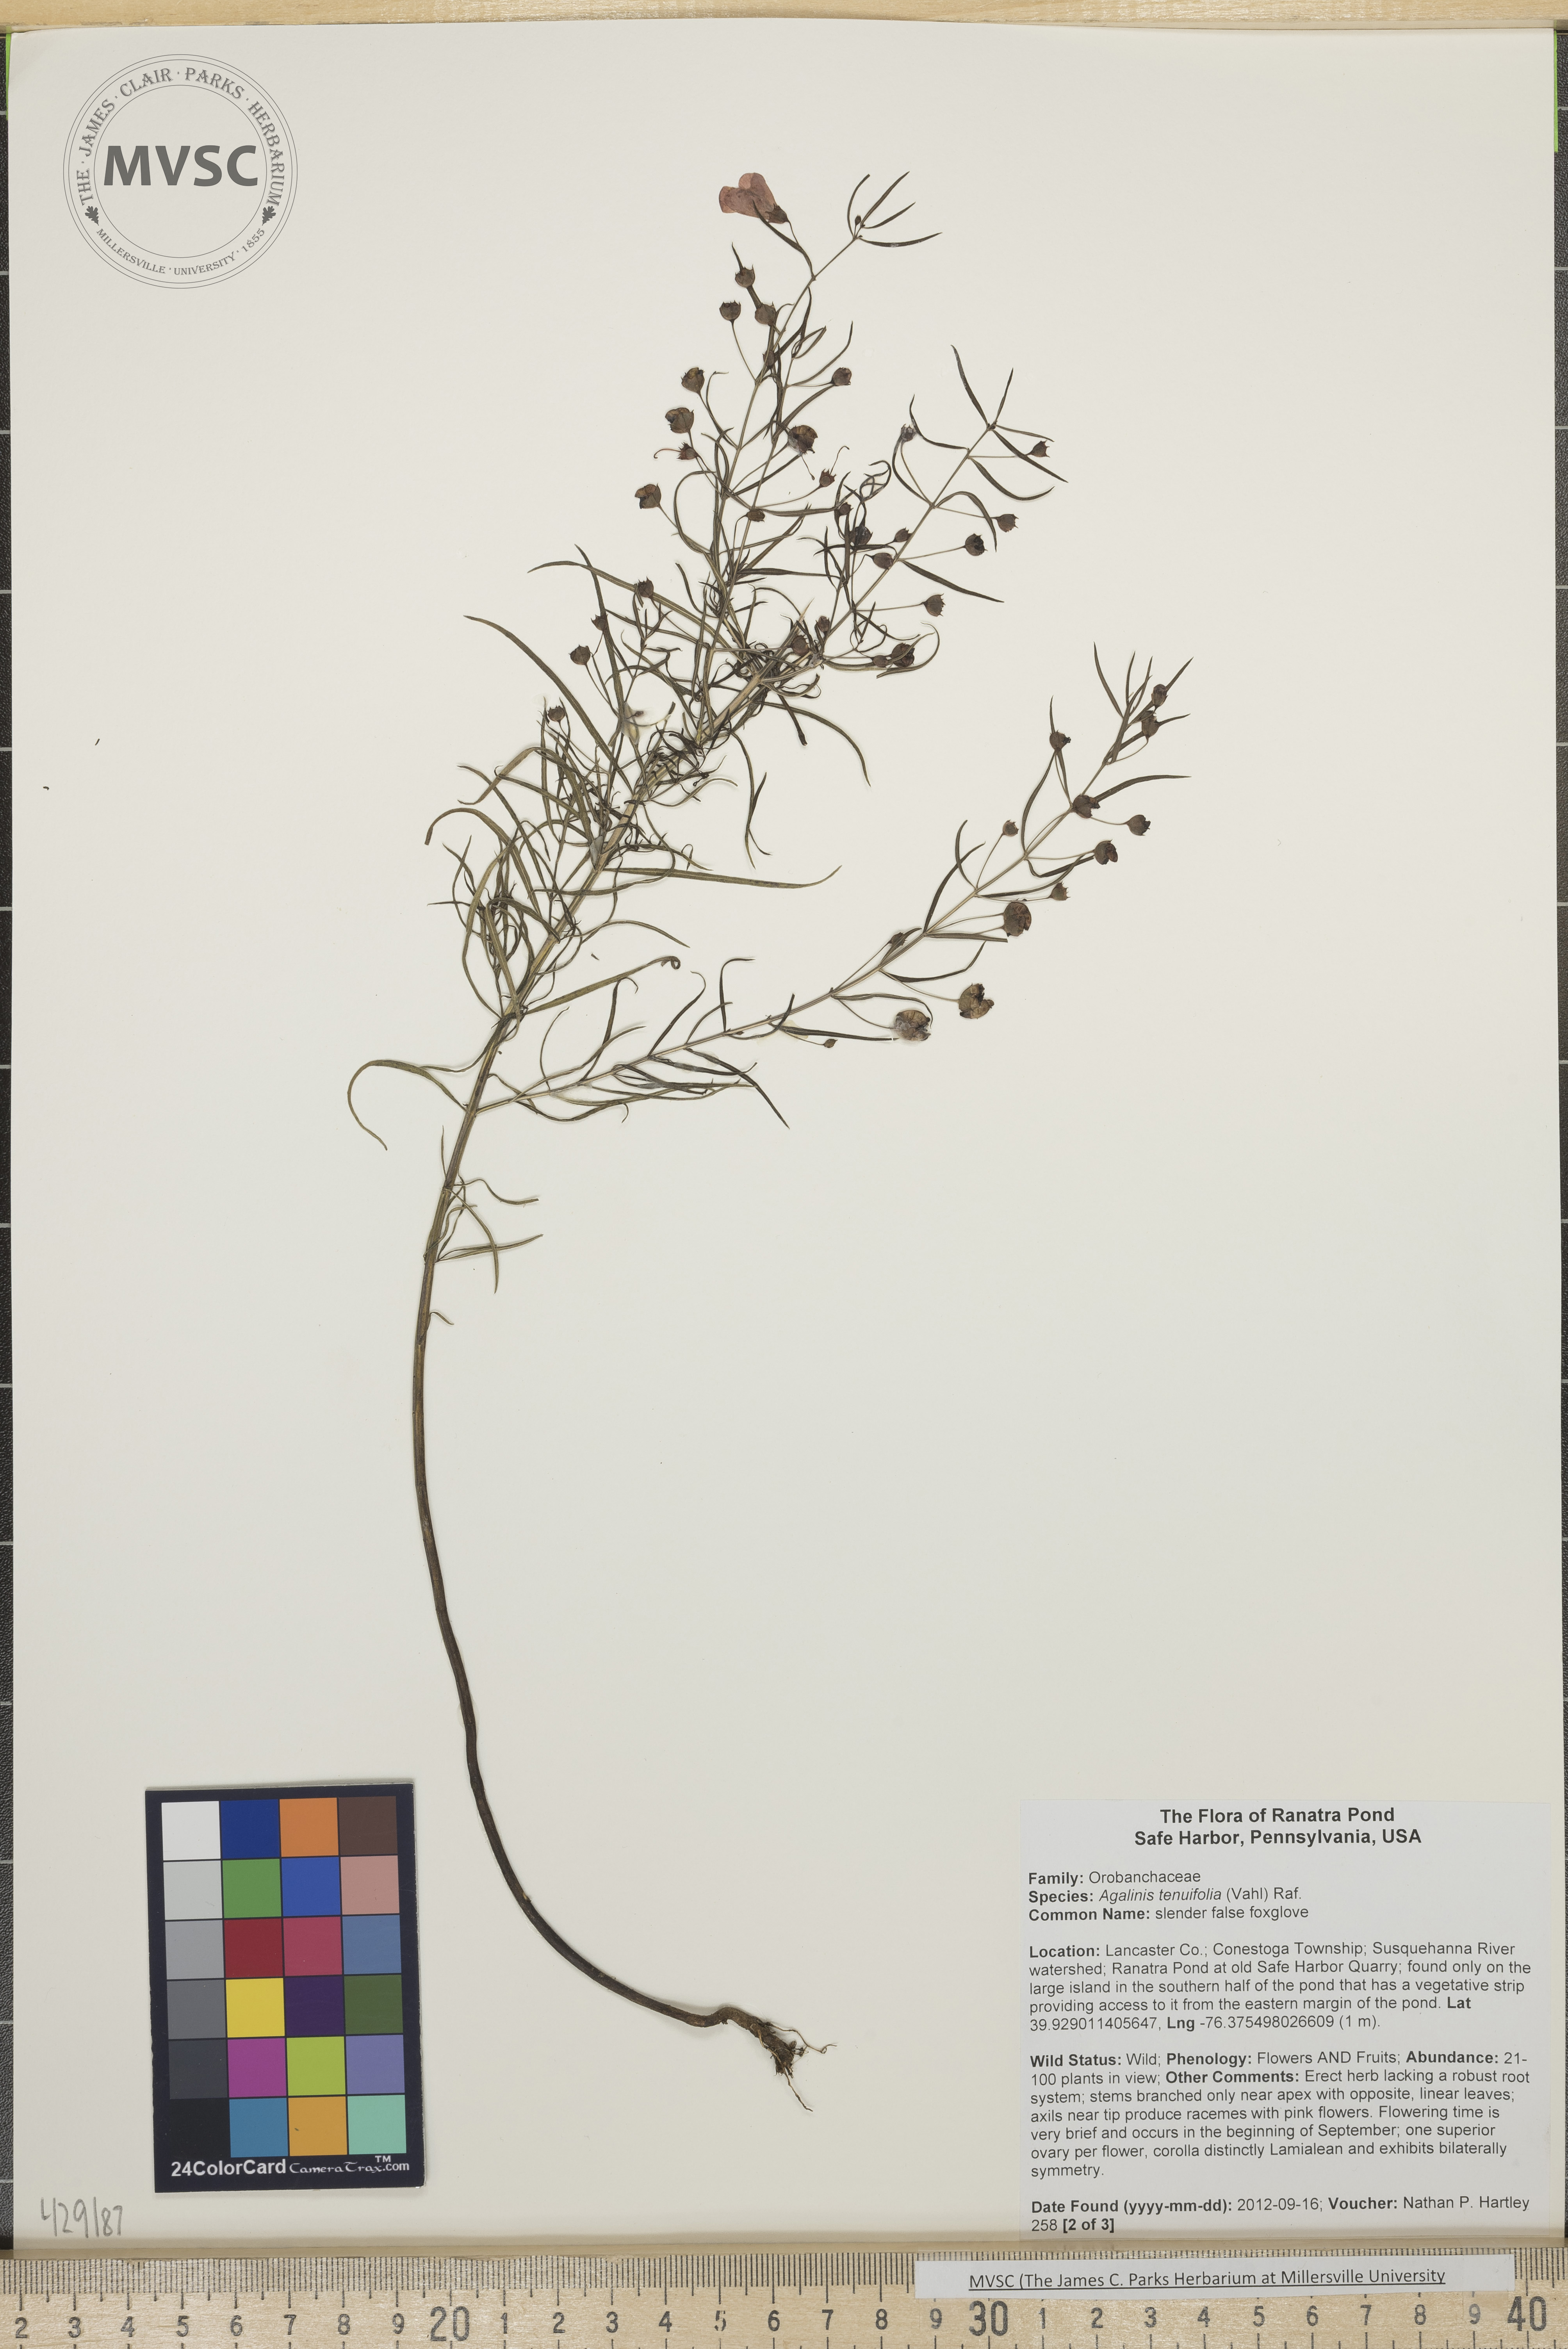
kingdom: Plantae
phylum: Tracheophyta
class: Magnoliopsida
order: Lamiales
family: Orobanchaceae
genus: Agalinis
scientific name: Agalinis tenuifolia
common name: Slender false foxglove
